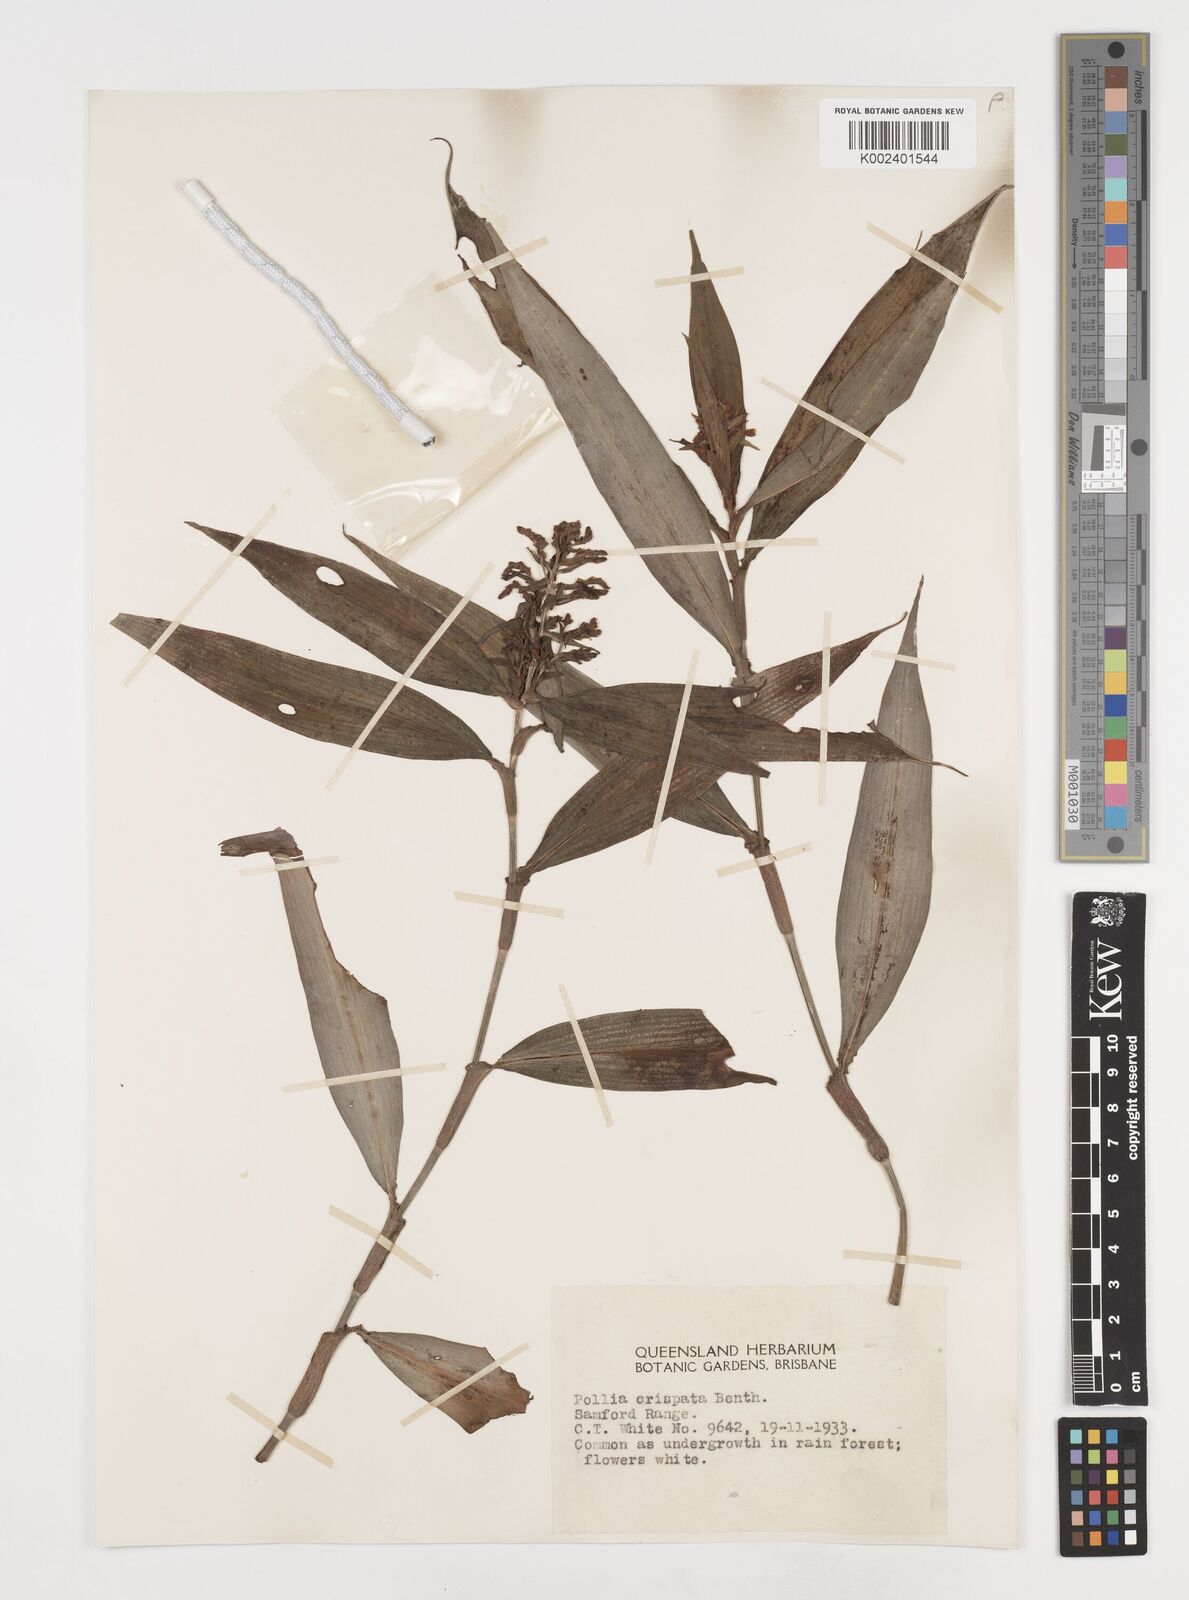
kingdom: Plantae
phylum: Tracheophyta
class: Liliopsida
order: Commelinales
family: Commelinaceae
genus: Pollia
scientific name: Pollia crispata
